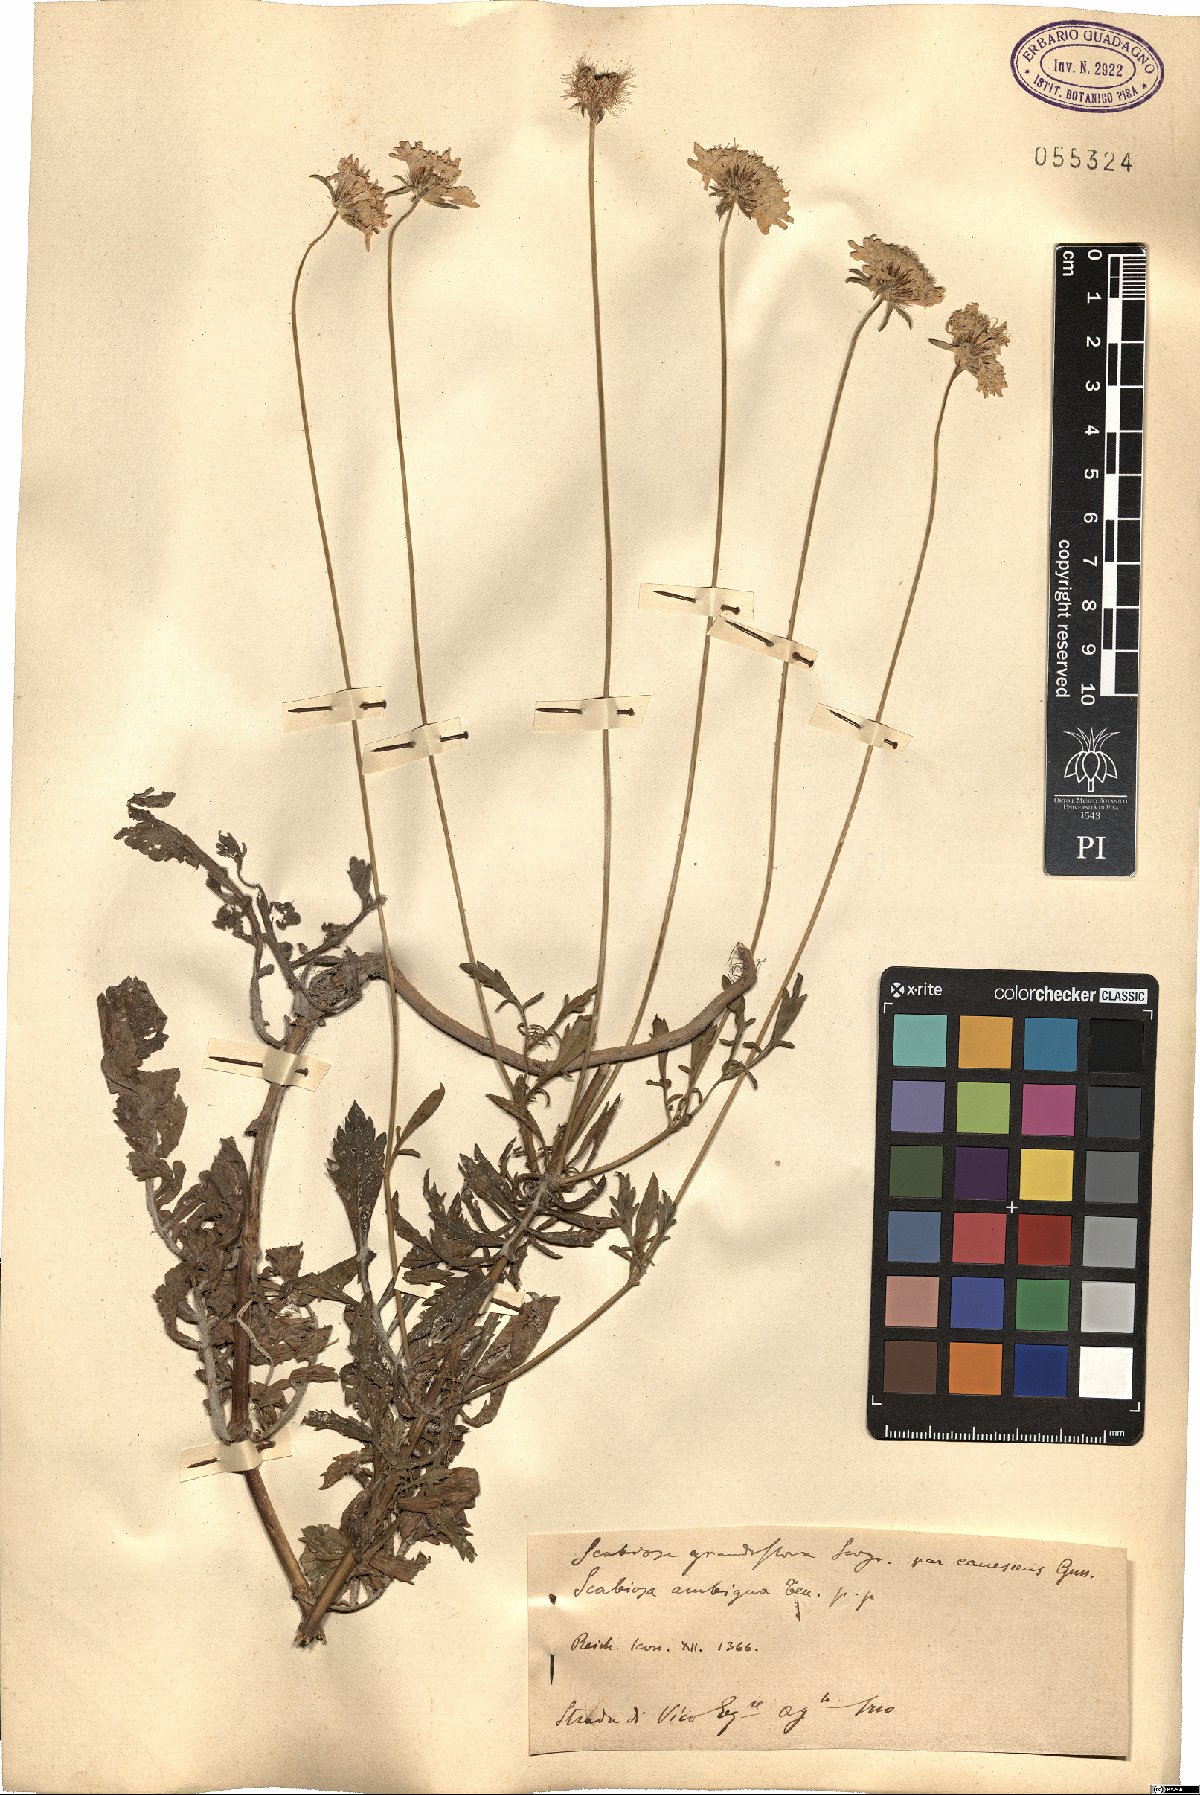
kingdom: Plantae
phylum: Tracheophyta
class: Magnoliopsida
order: Dipsacales
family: Caprifoliaceae
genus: Sixalix
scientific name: Sixalix maritima
